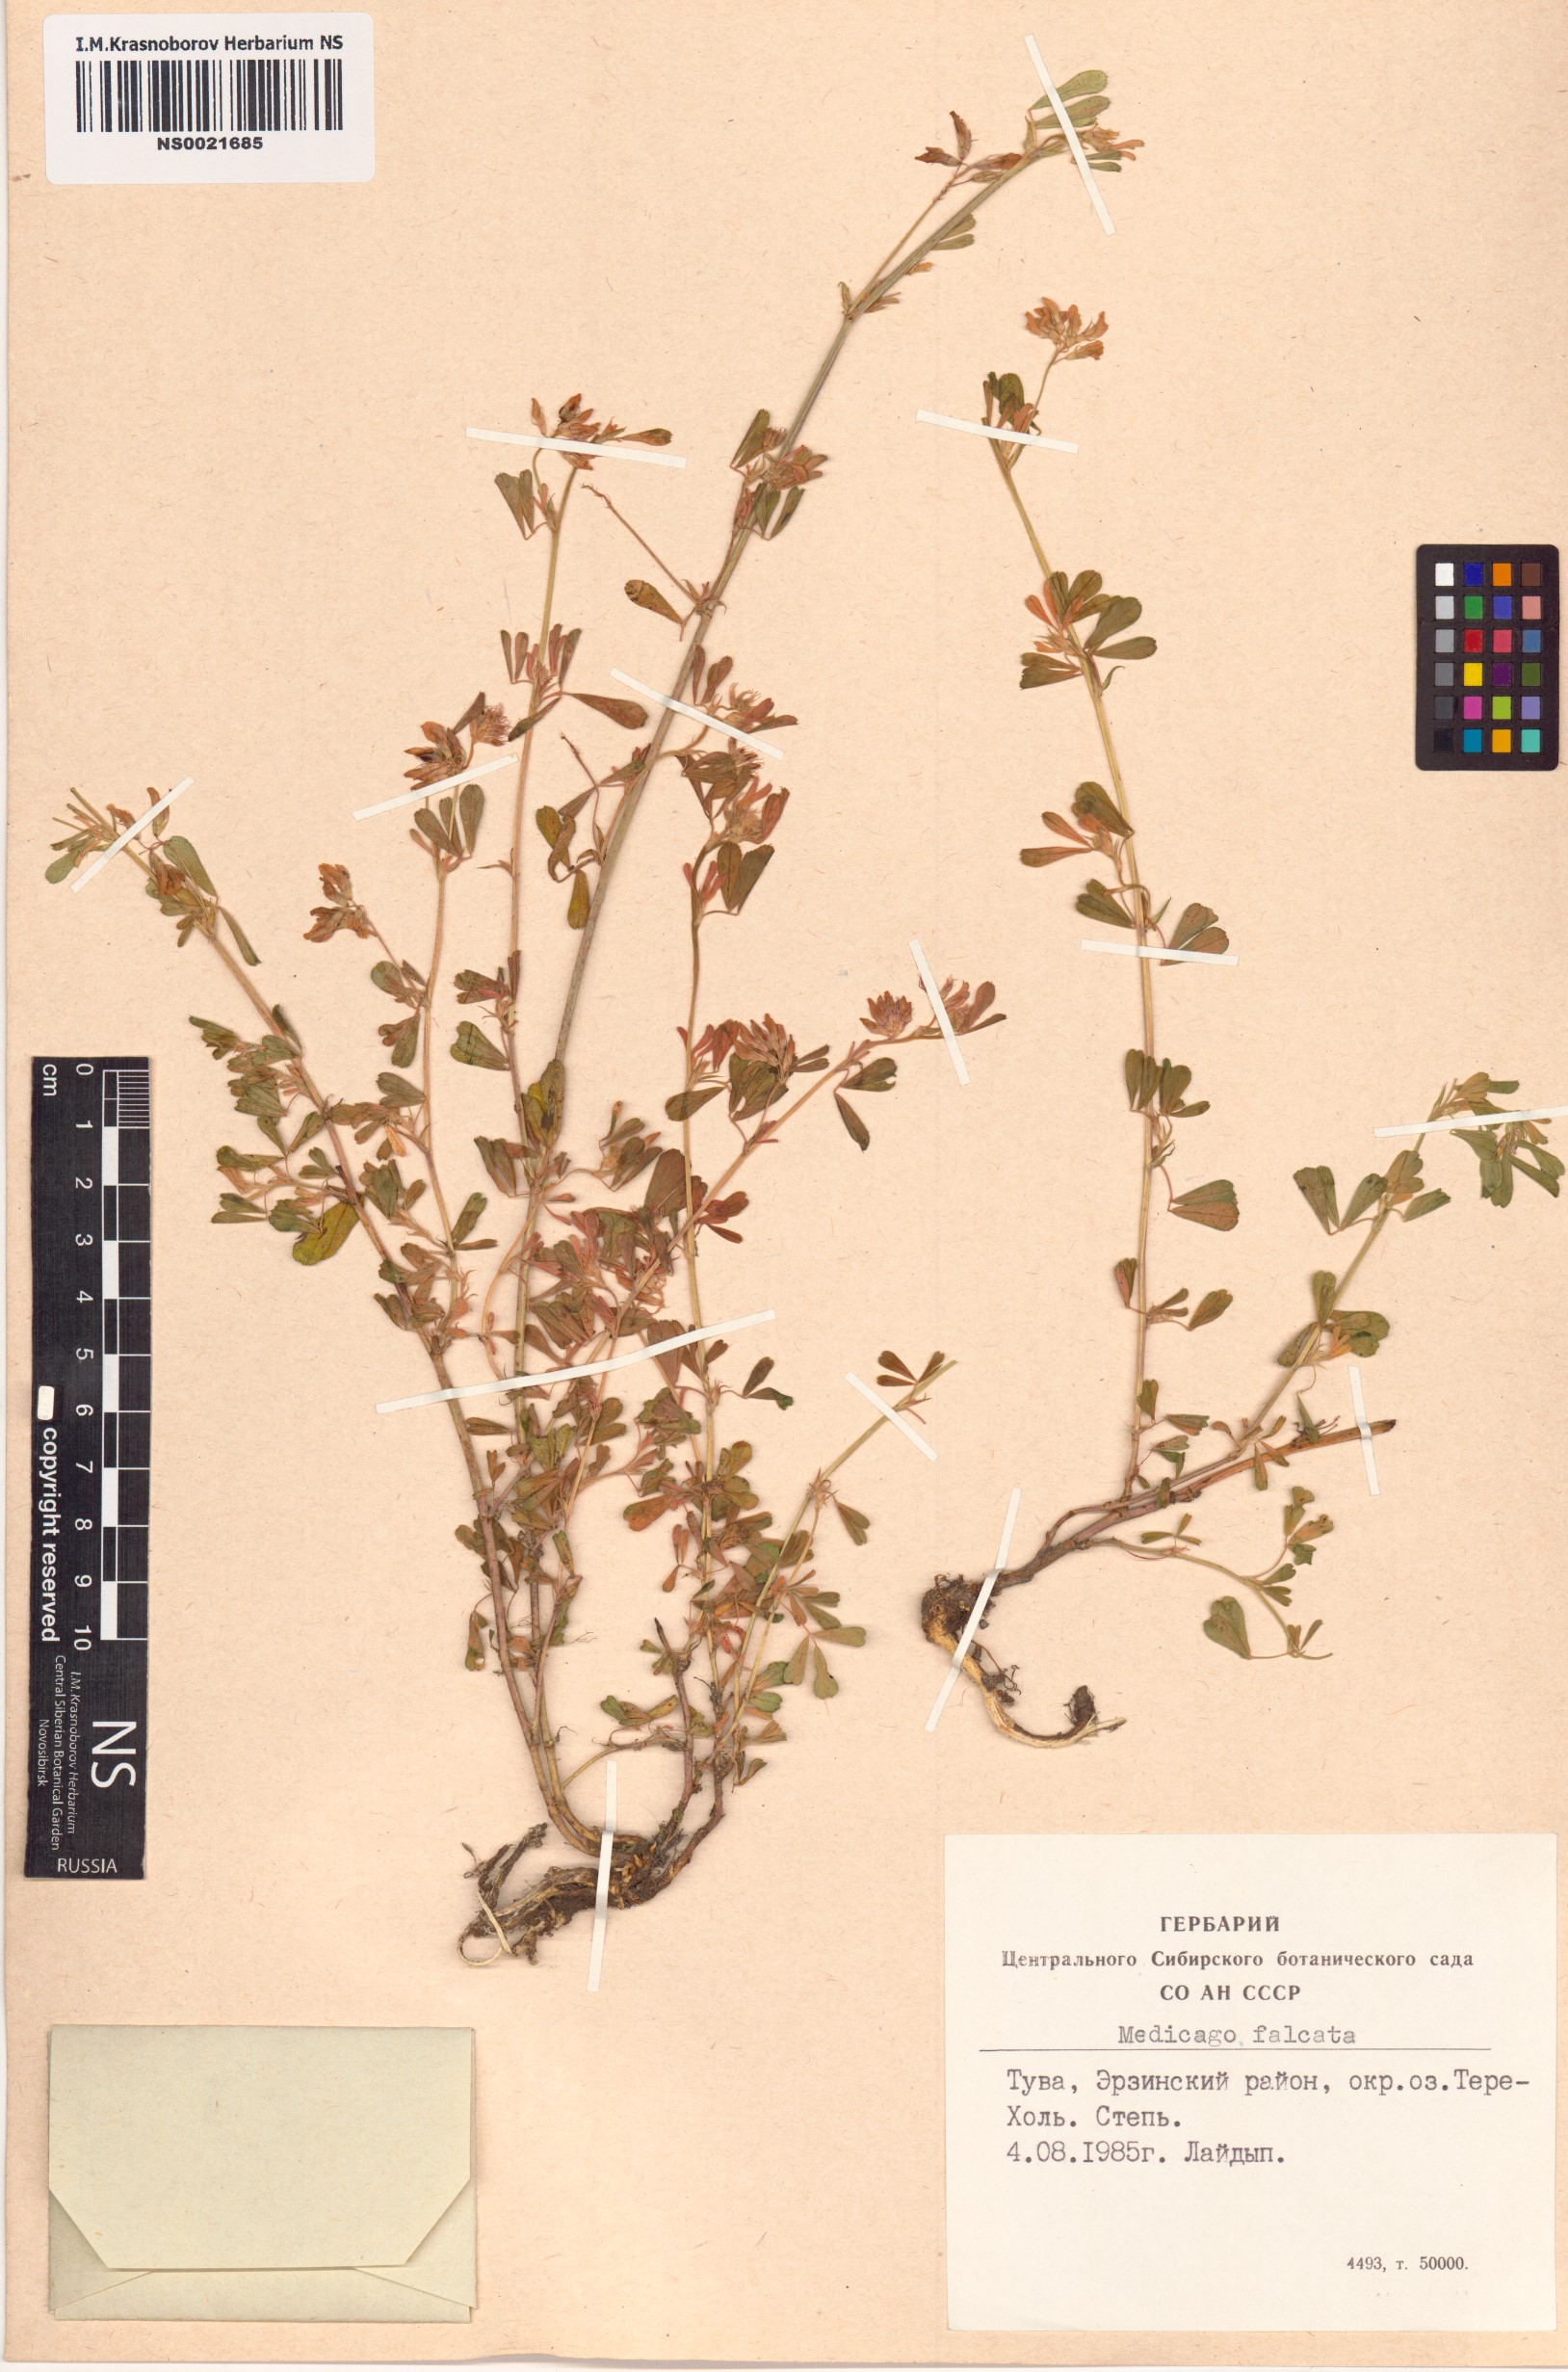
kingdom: Plantae
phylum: Tracheophyta
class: Magnoliopsida
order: Fabales
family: Fabaceae
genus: Medicago
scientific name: Medicago falcata
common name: Sickle medick
